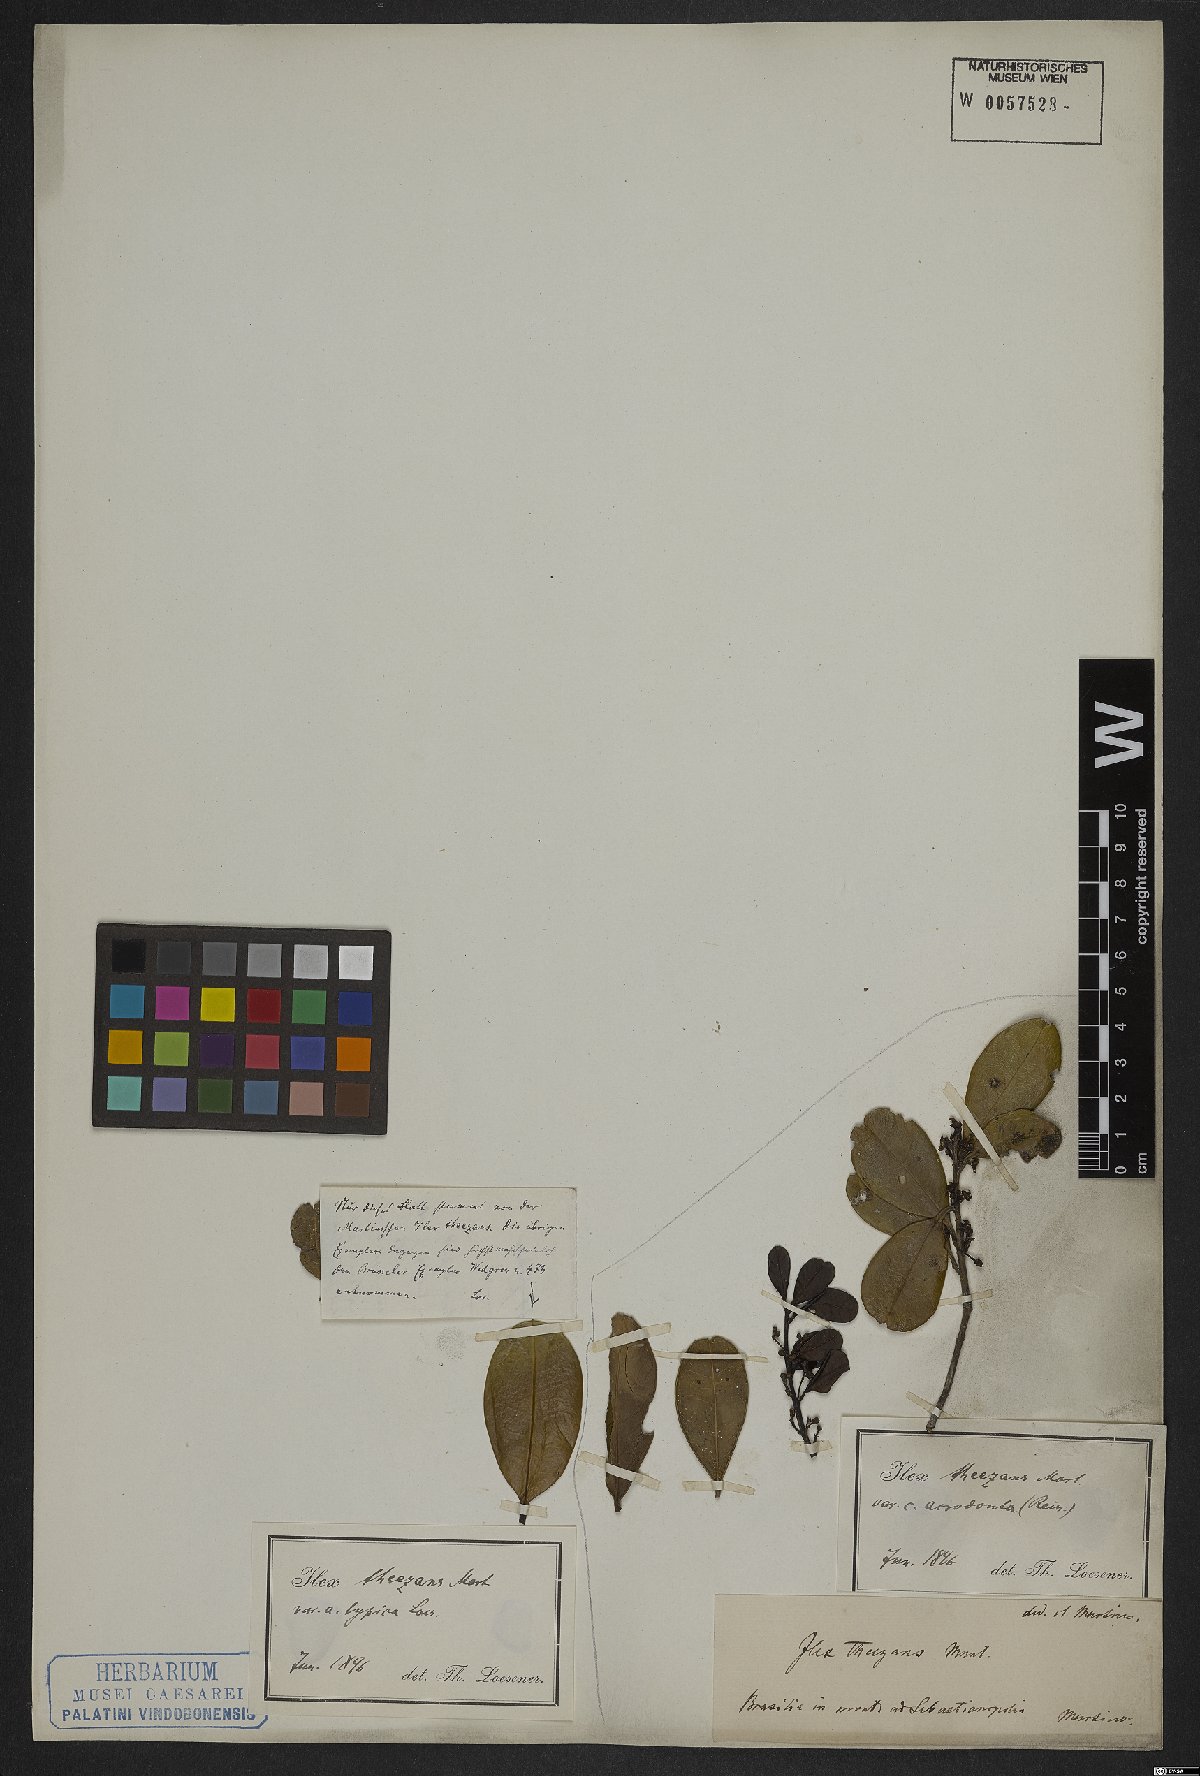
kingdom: Plantae
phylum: Tracheophyta
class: Magnoliopsida
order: Aquifoliales
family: Aquifoliaceae
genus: Ilex
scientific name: Ilex theezans
